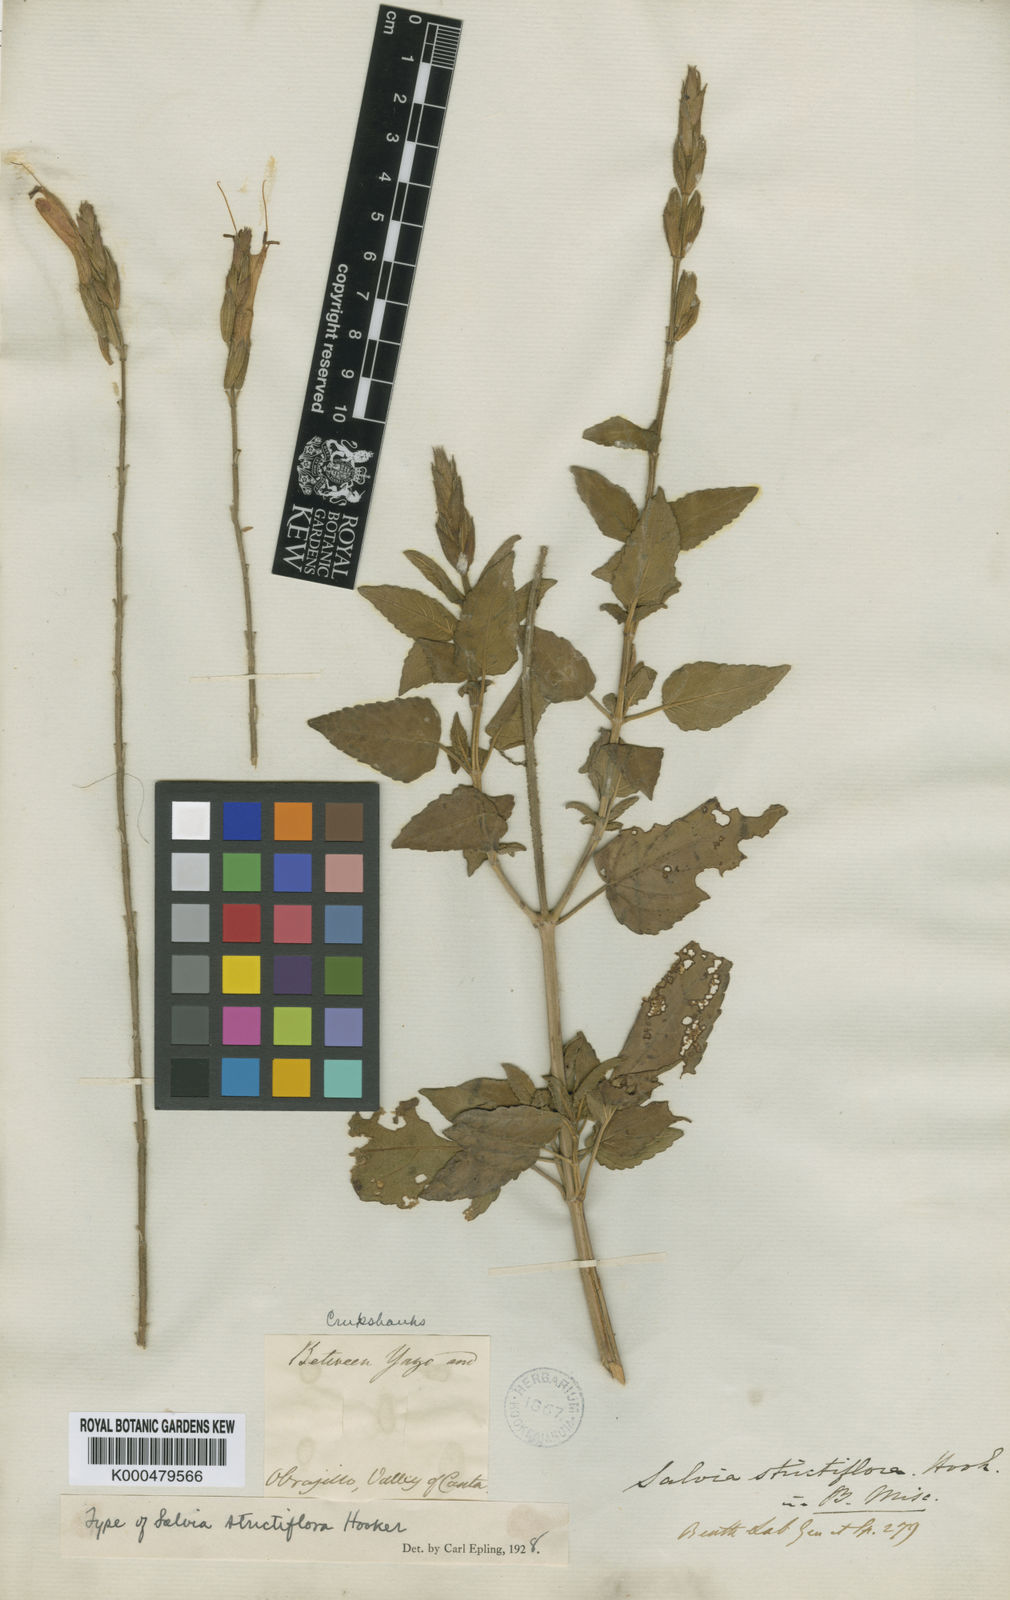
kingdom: Plantae
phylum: Tracheophyta
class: Magnoliopsida
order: Lamiales
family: Lamiaceae
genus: Salvia
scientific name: Salvia oppositiflora
